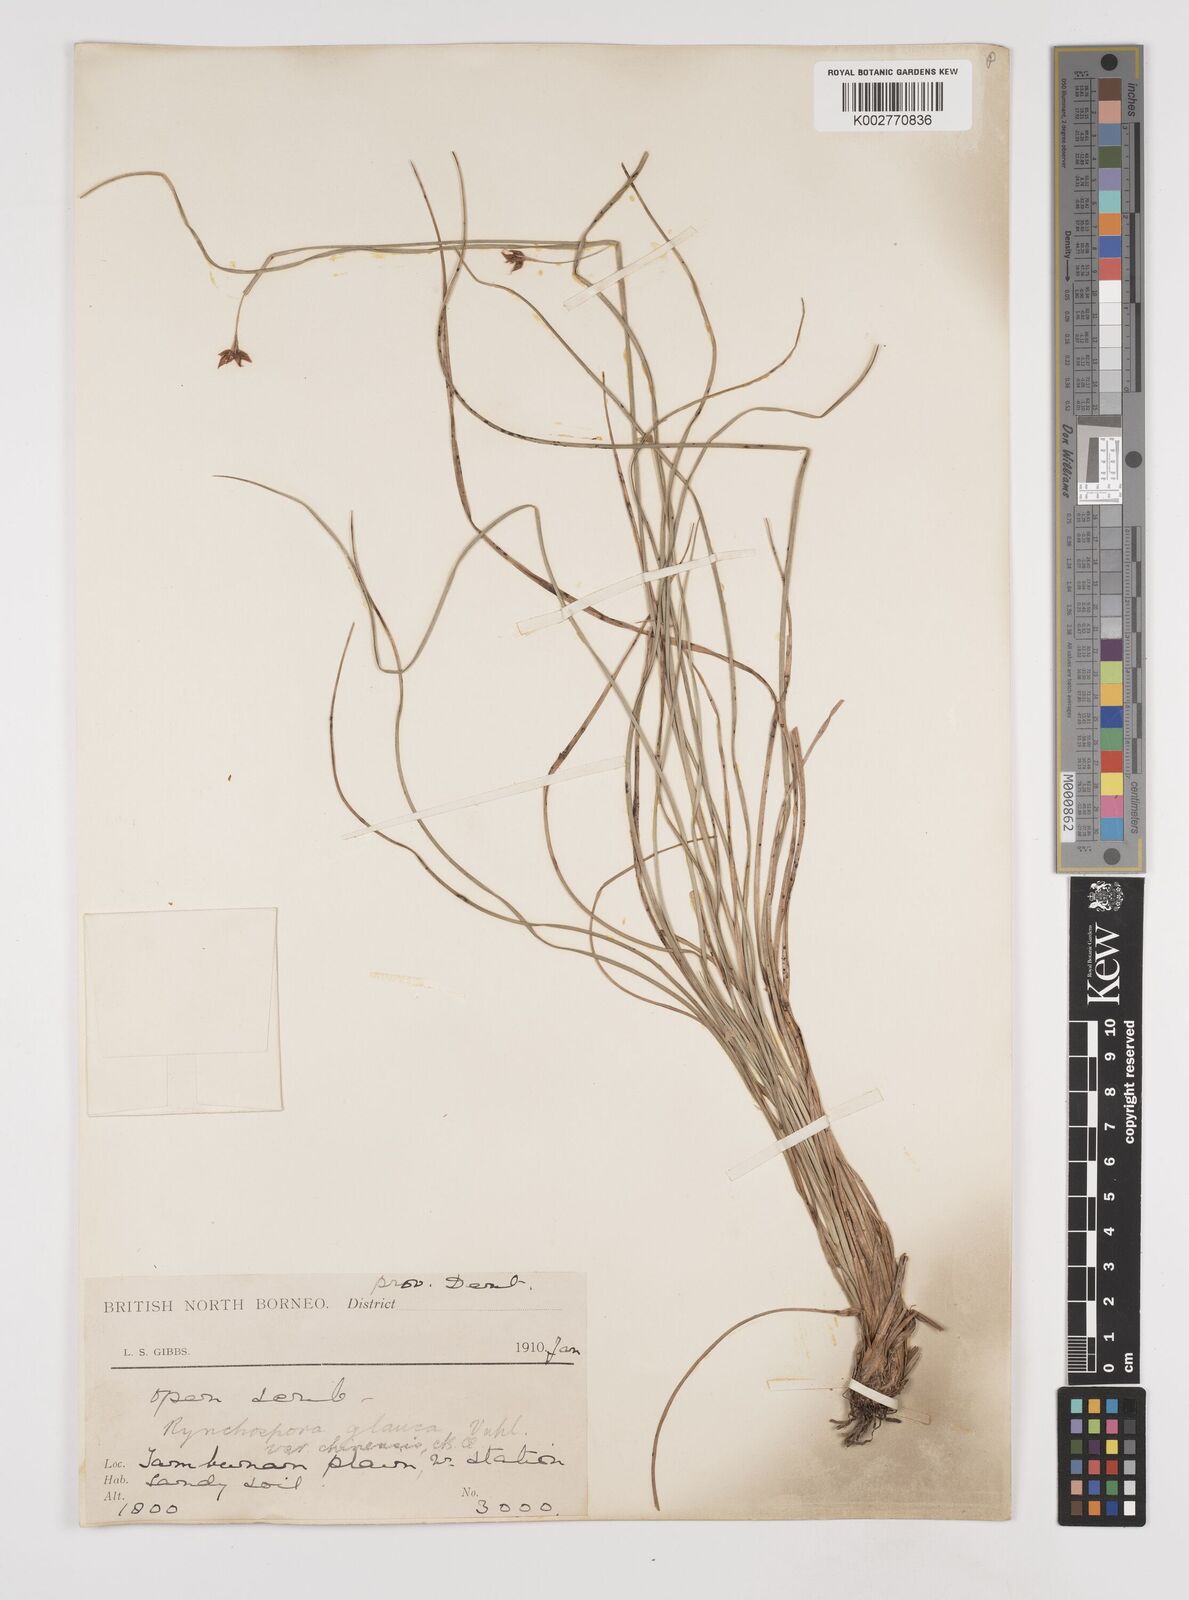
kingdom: Plantae
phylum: Tracheophyta
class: Liliopsida
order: Poales
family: Cyperaceae
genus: Rhynchospora
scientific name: Rhynchospora rugosa
